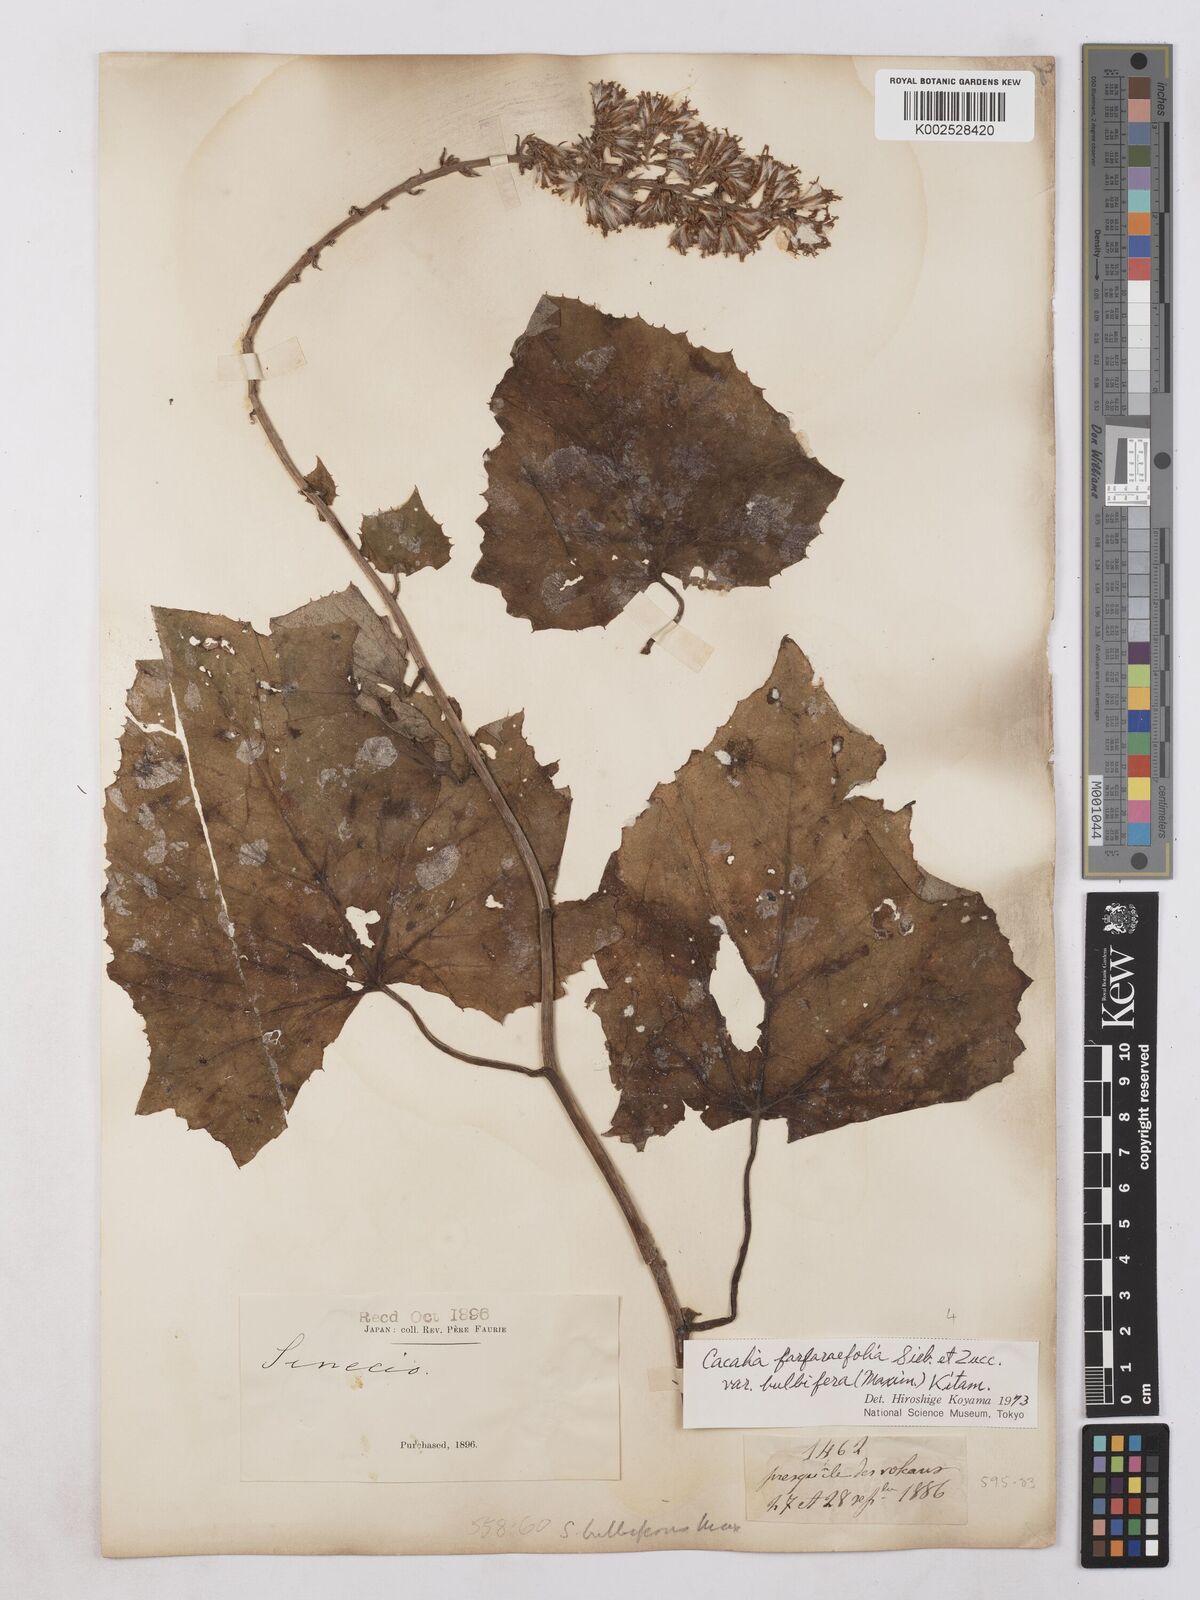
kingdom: Plantae
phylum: Tracheophyta
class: Magnoliopsida
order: Asterales
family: Asteraceae
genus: Parasenecio
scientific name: Parasenecio bulbiferoides
